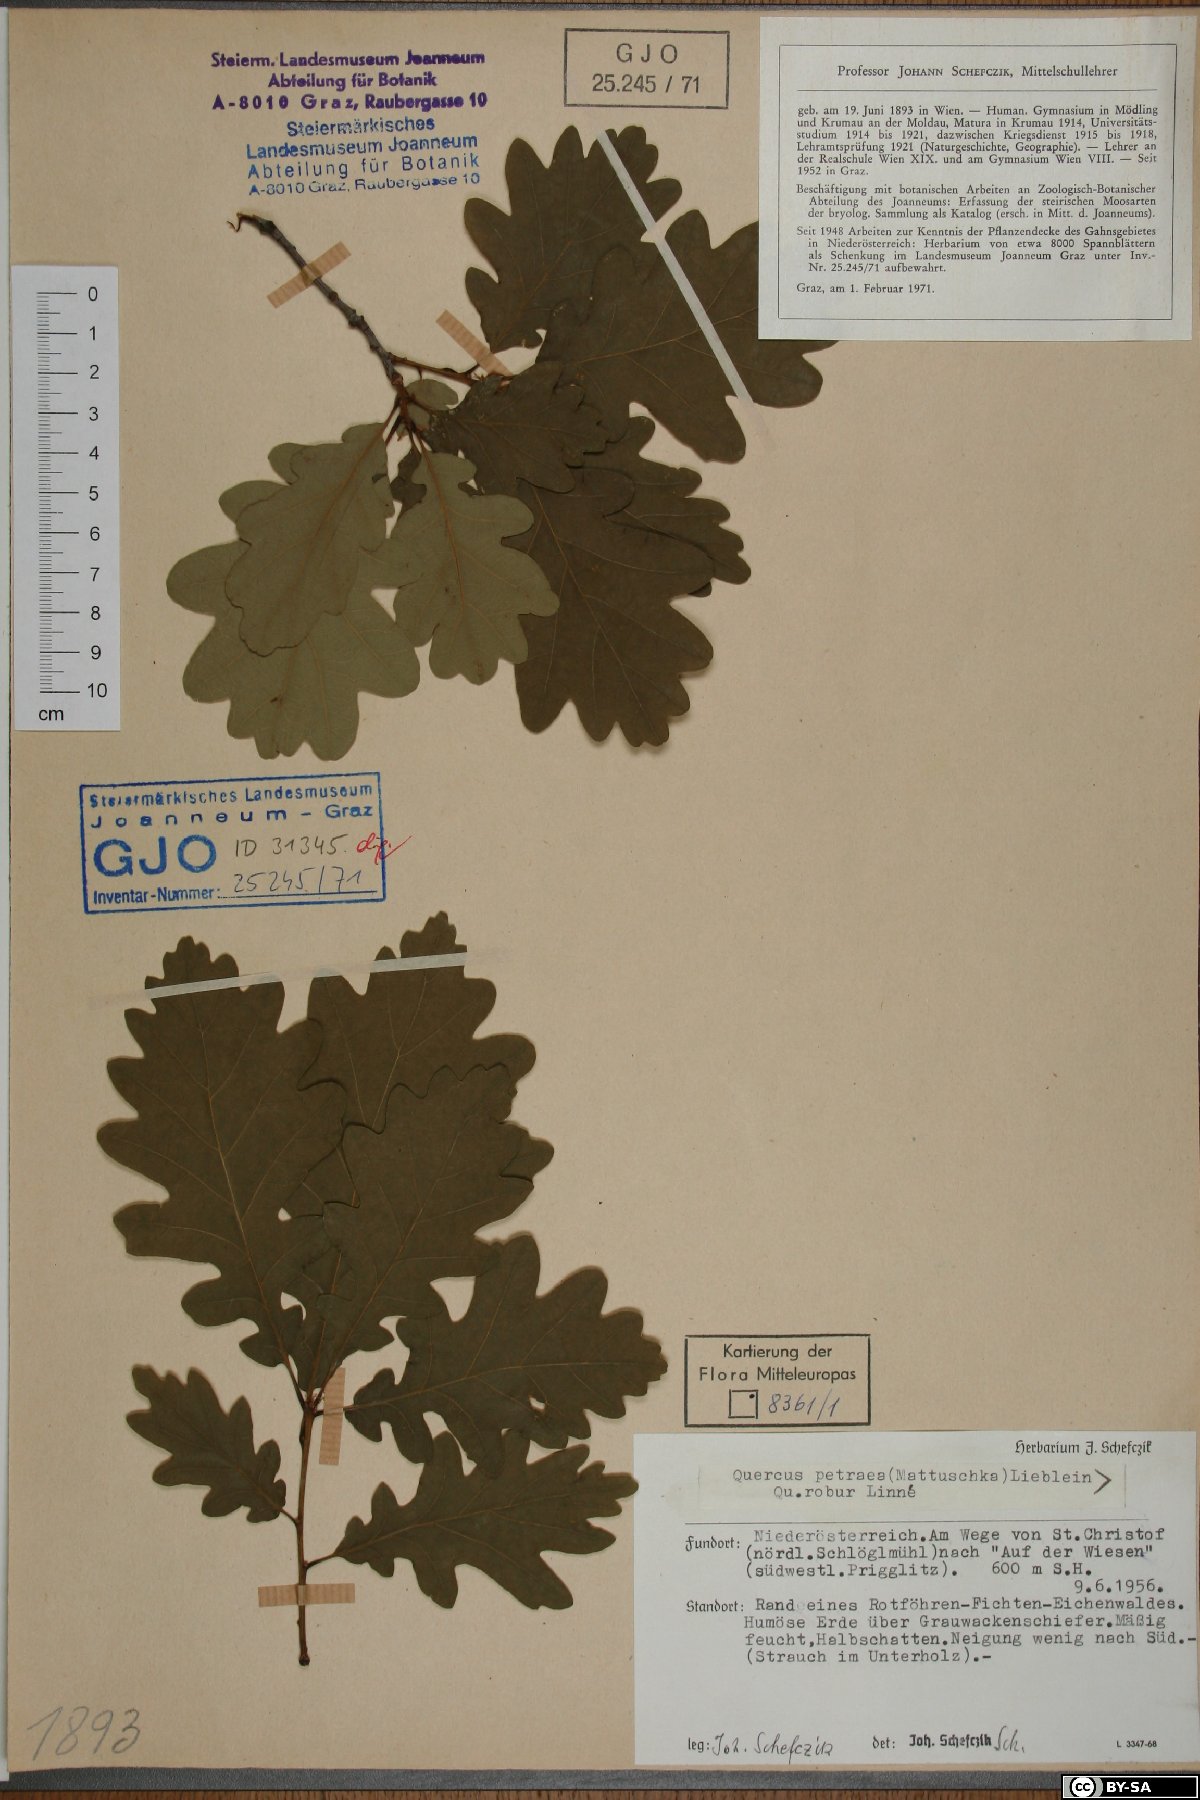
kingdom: Plantae
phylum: Tracheophyta
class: Magnoliopsida
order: Fagales
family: Fagaceae
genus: Quercus
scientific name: Quercus petraea
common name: Sessile oak
